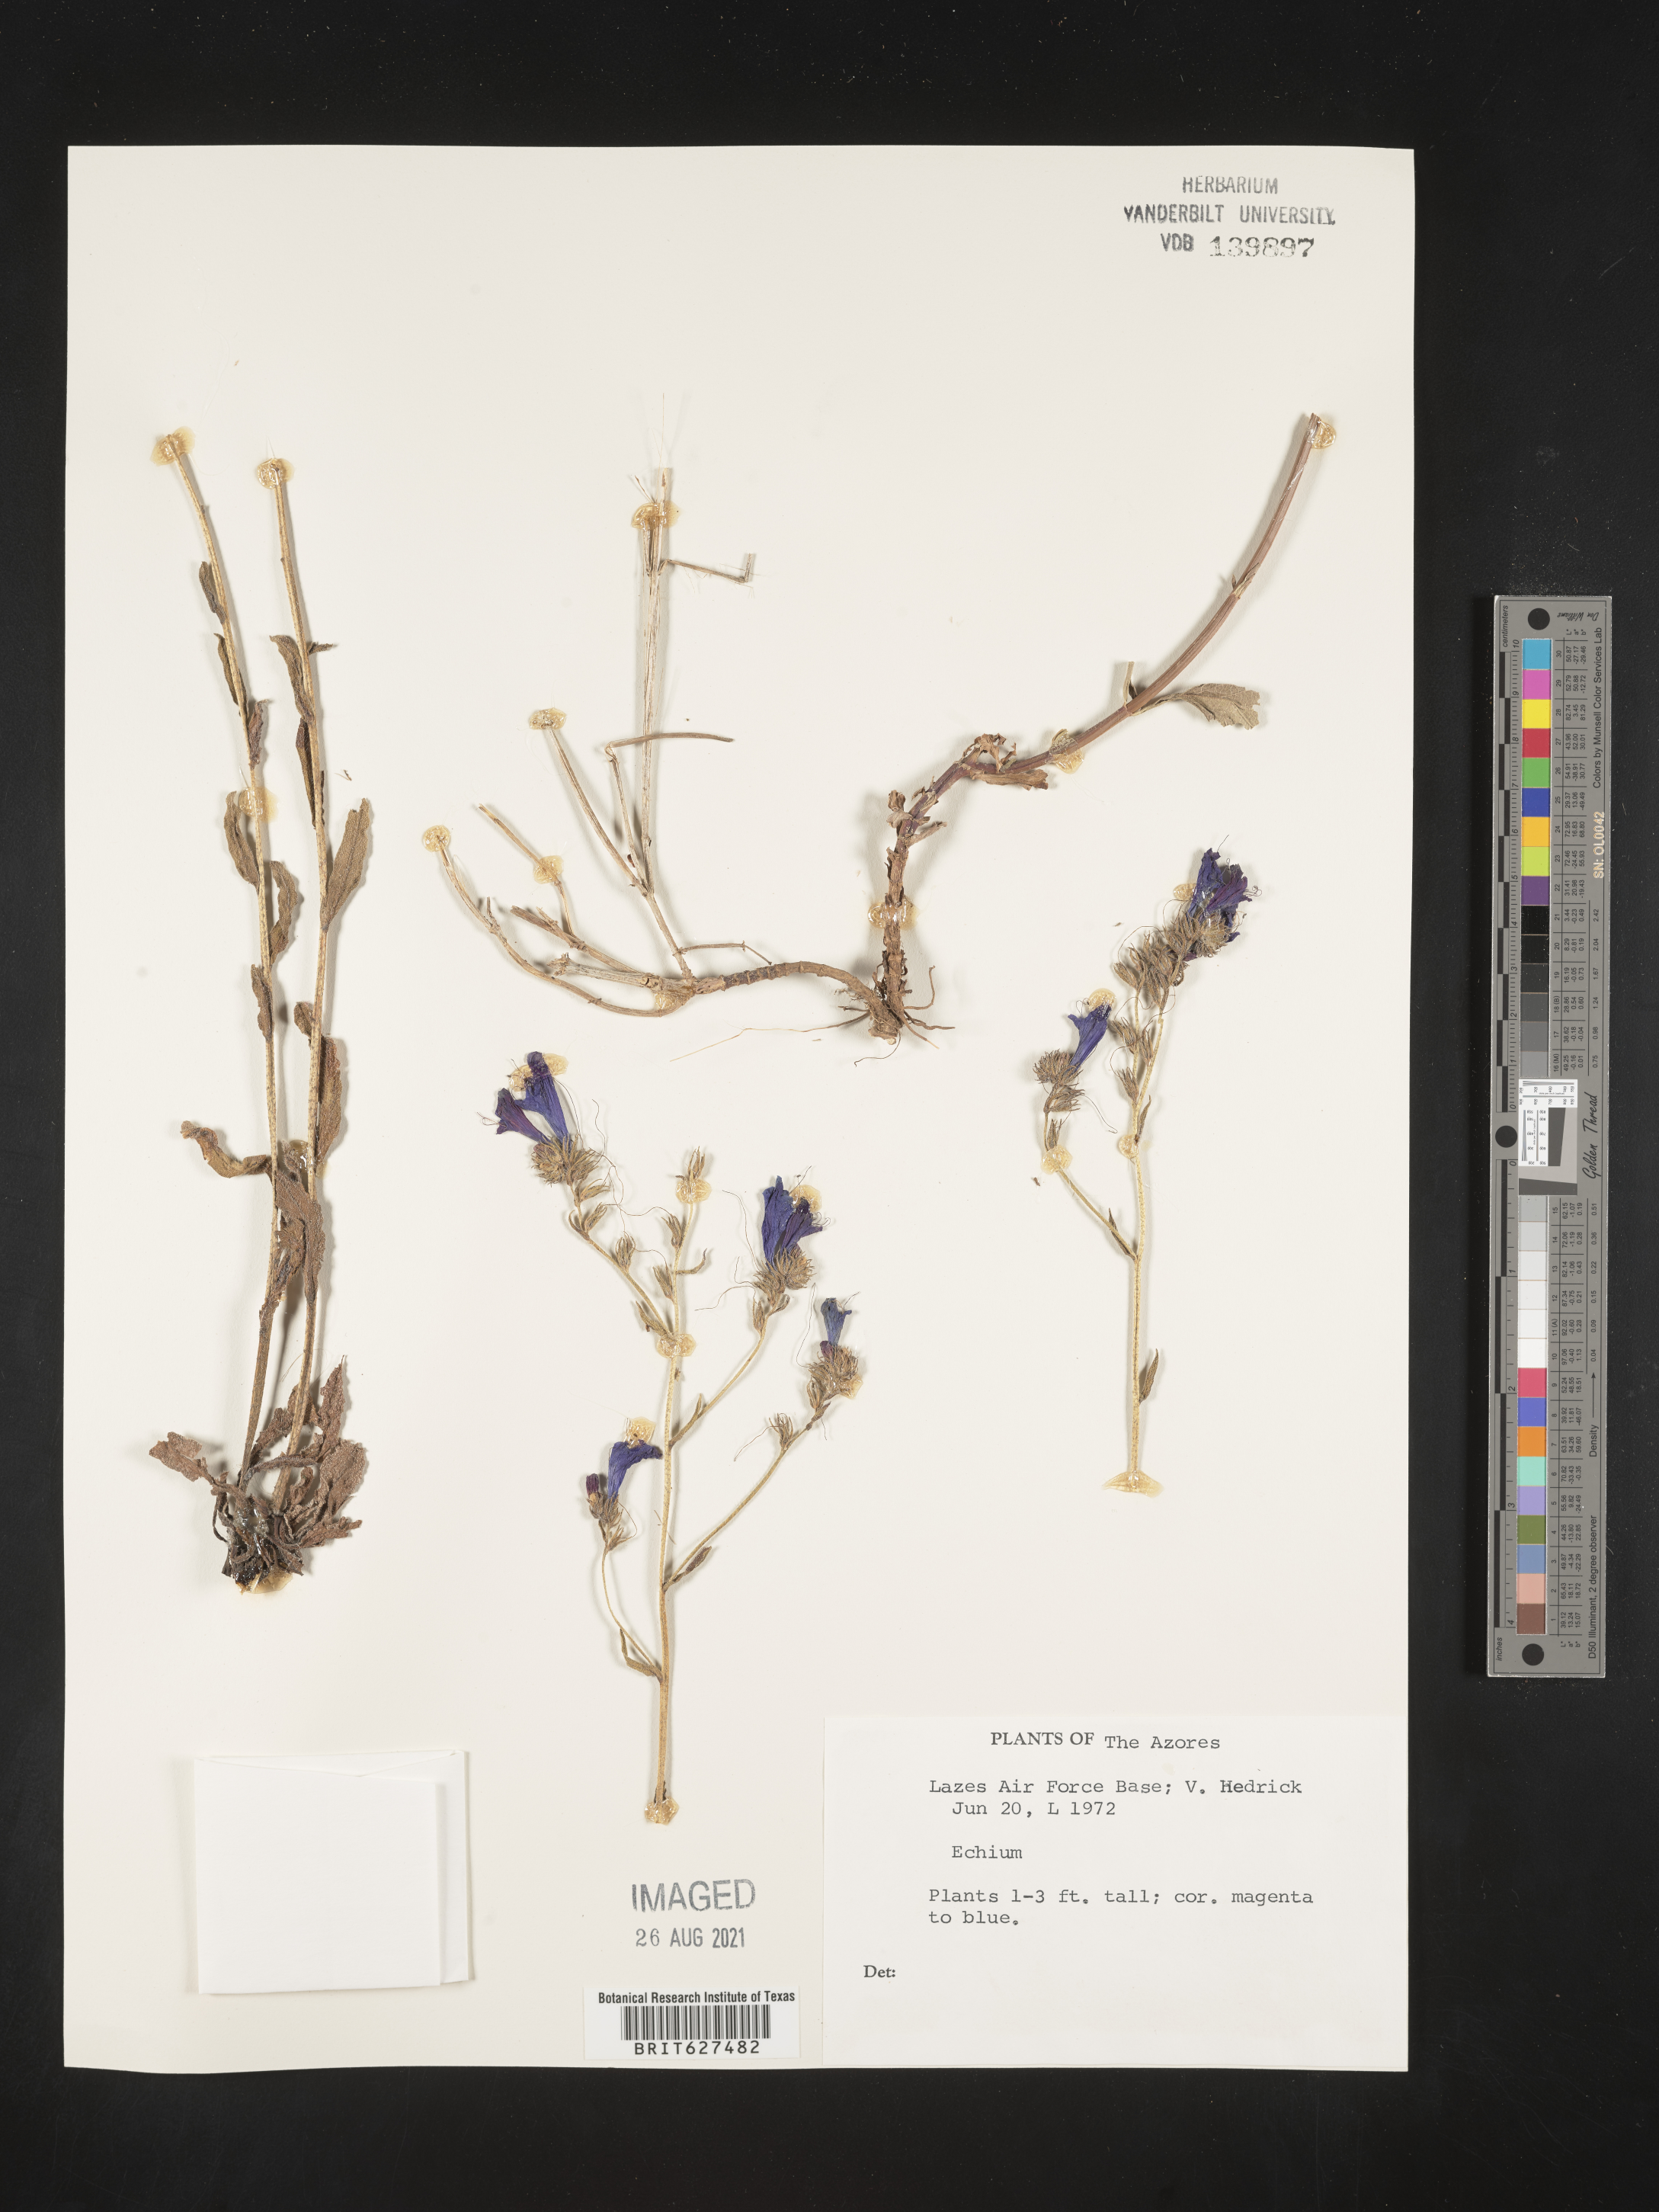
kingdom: Plantae
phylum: Tracheophyta
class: Magnoliopsida
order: Boraginales
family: Boraginaceae
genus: Echium
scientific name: Echium
